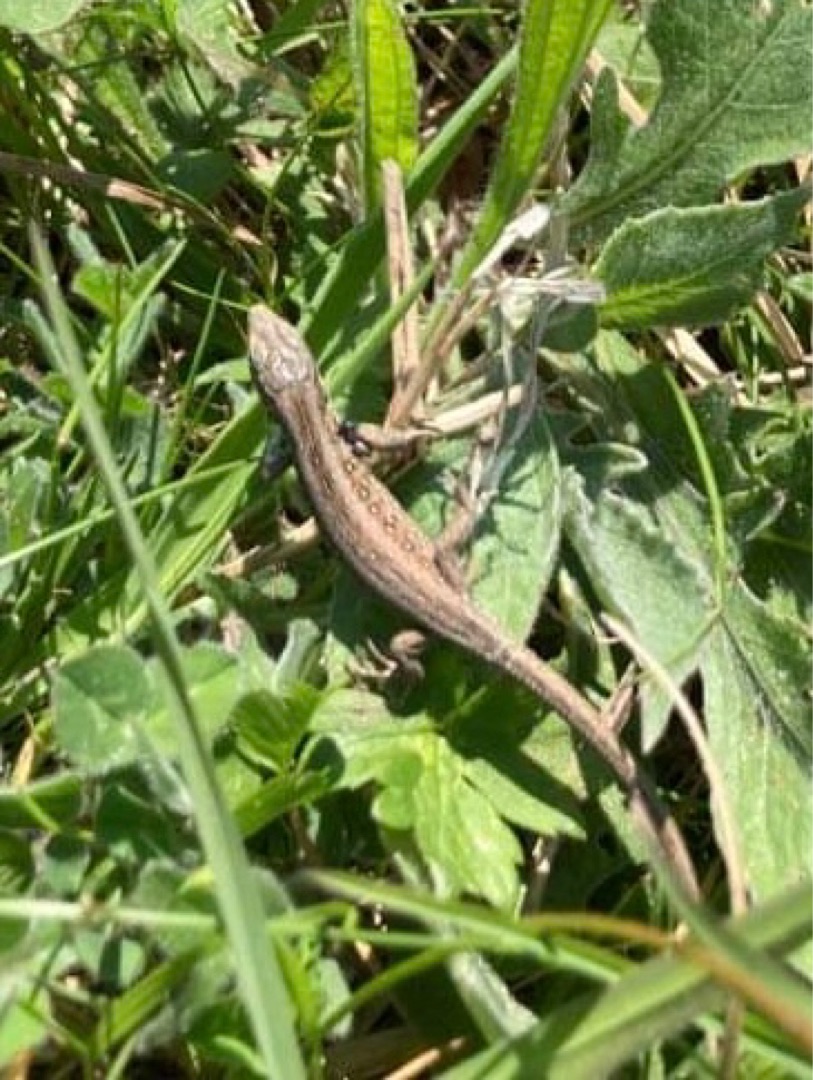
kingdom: Animalia
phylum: Chordata
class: Squamata
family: Lacertidae
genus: Lacerta
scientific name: Lacerta agilis
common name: Markfirben
